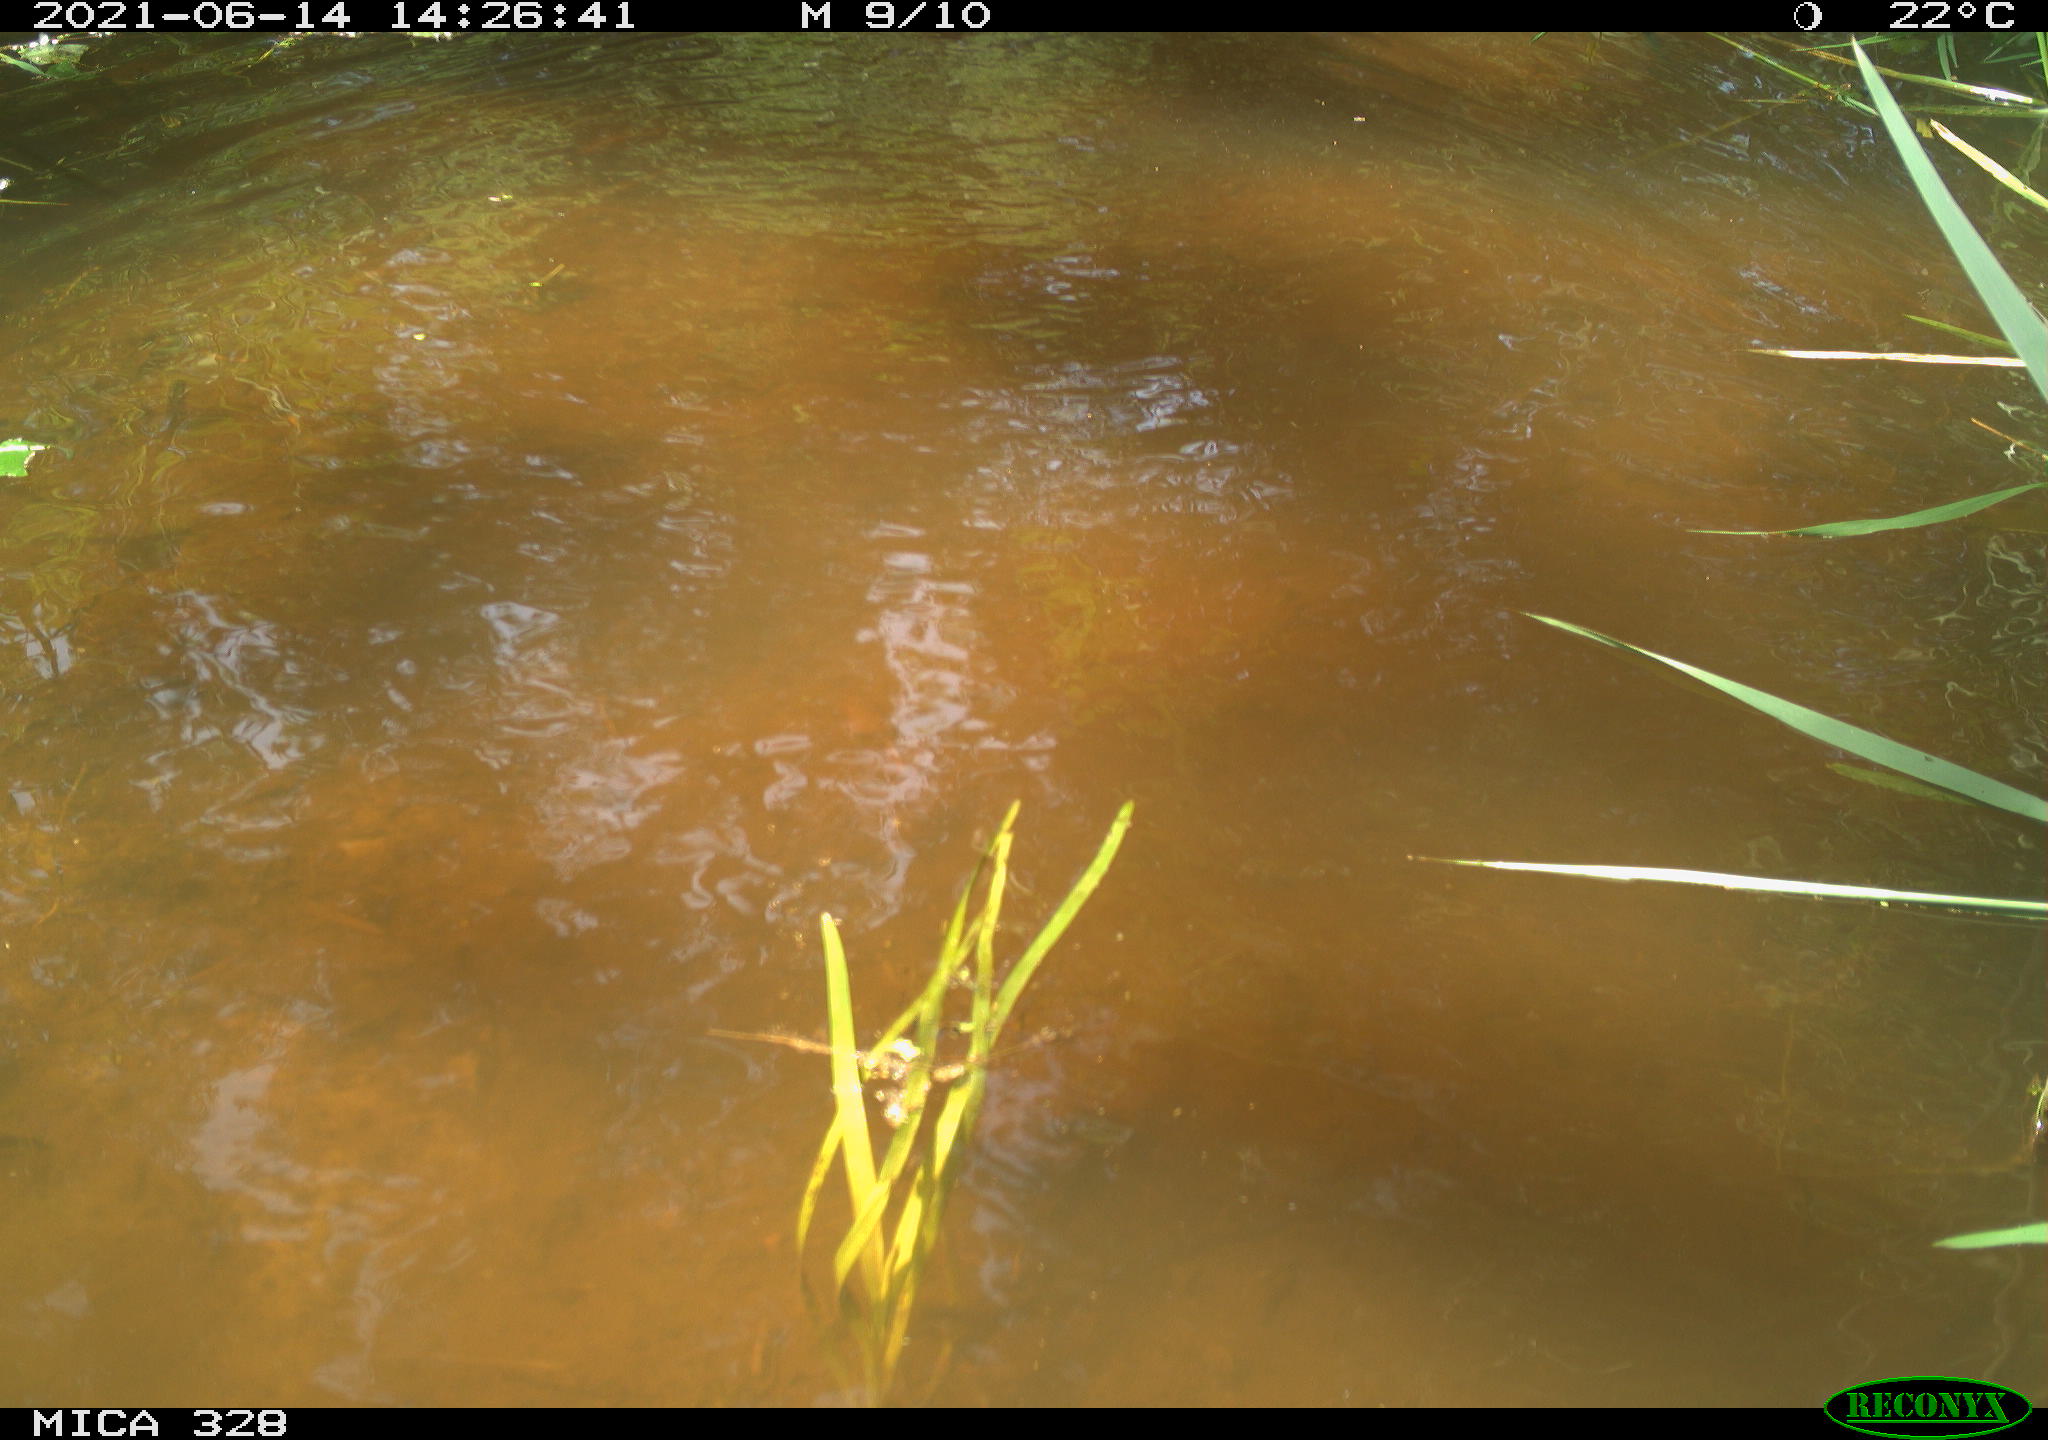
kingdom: Animalia
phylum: Chordata
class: Aves
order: Anseriformes
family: Anatidae
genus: Aix
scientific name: Aix galericulata
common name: Mandarin duck
